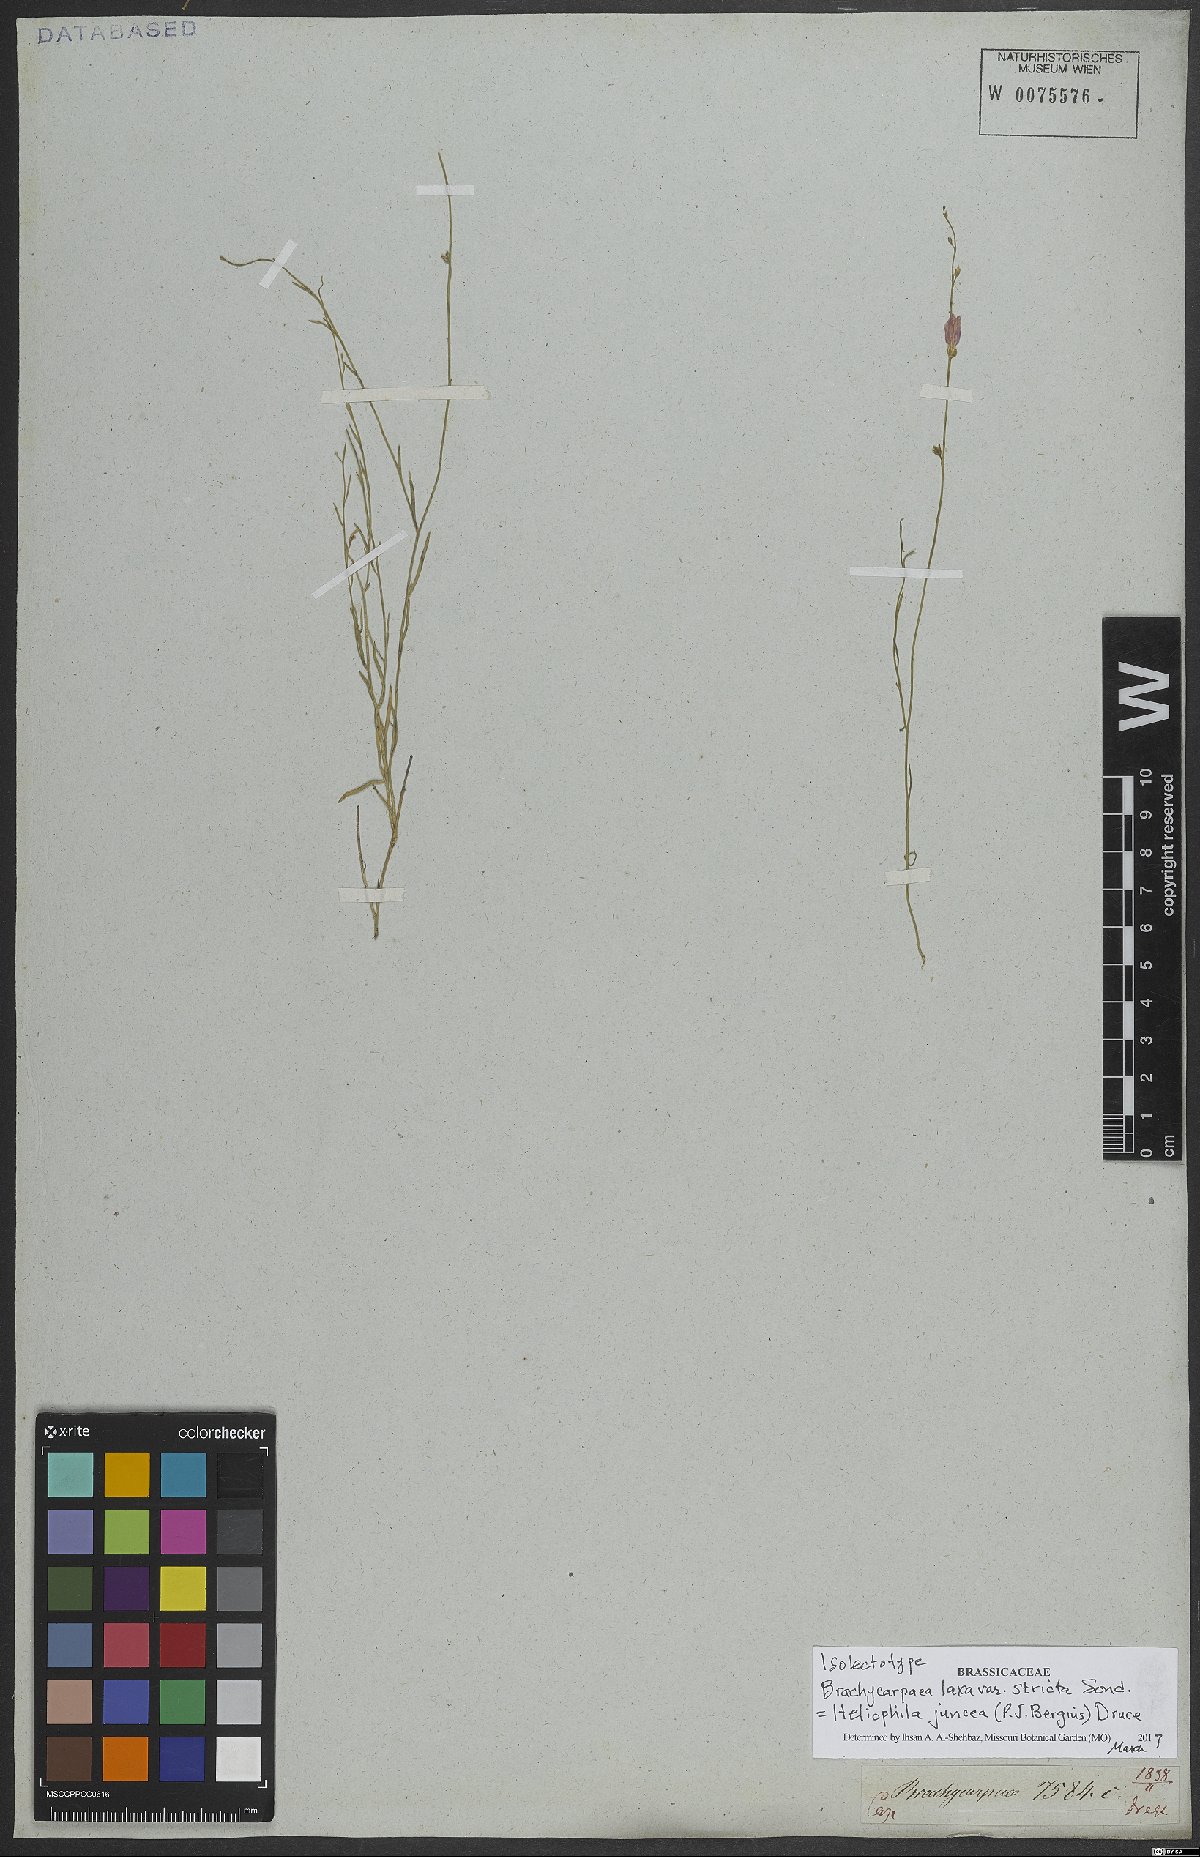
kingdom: Plantae
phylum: Tracheophyta
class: Magnoliopsida
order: Brassicales
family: Brassicaceae
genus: Heliophila
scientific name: Heliophila juncea
